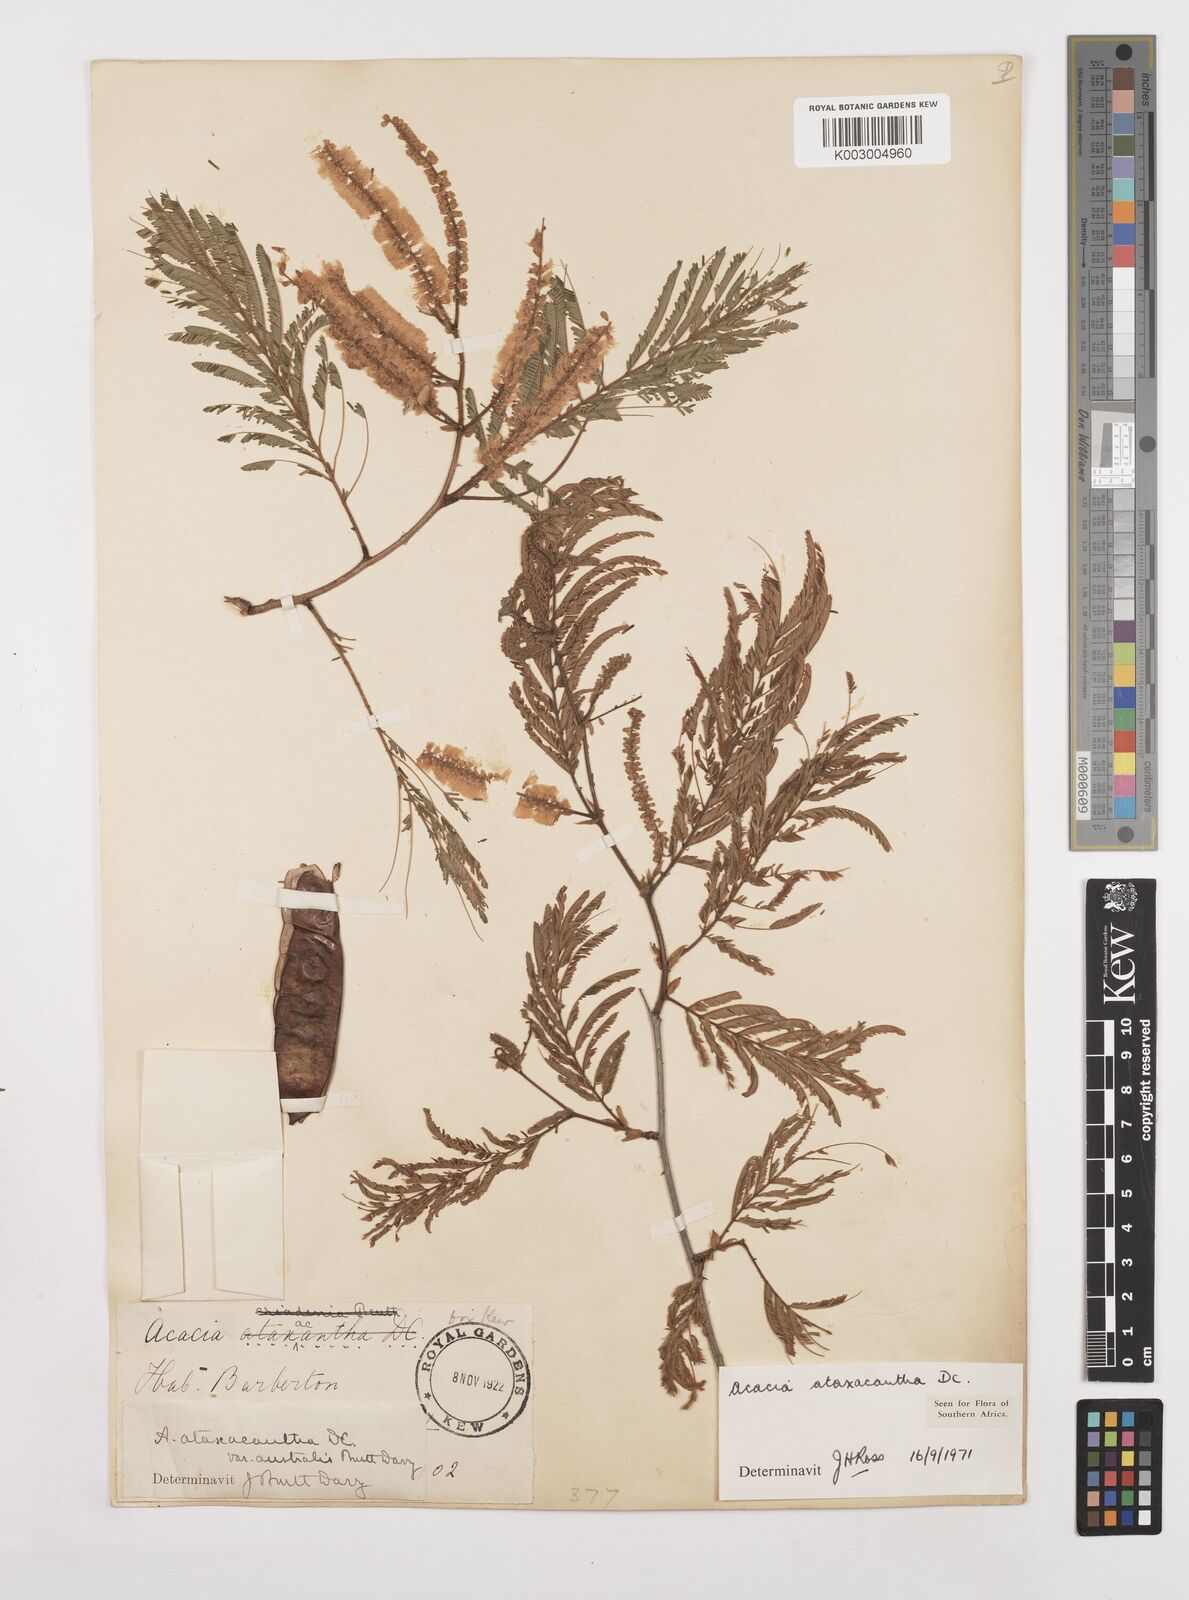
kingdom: Plantae
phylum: Tracheophyta
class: Magnoliopsida
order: Fabales
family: Fabaceae
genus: Senegalia
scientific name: Senegalia ataxacantha
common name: Flame acacia
